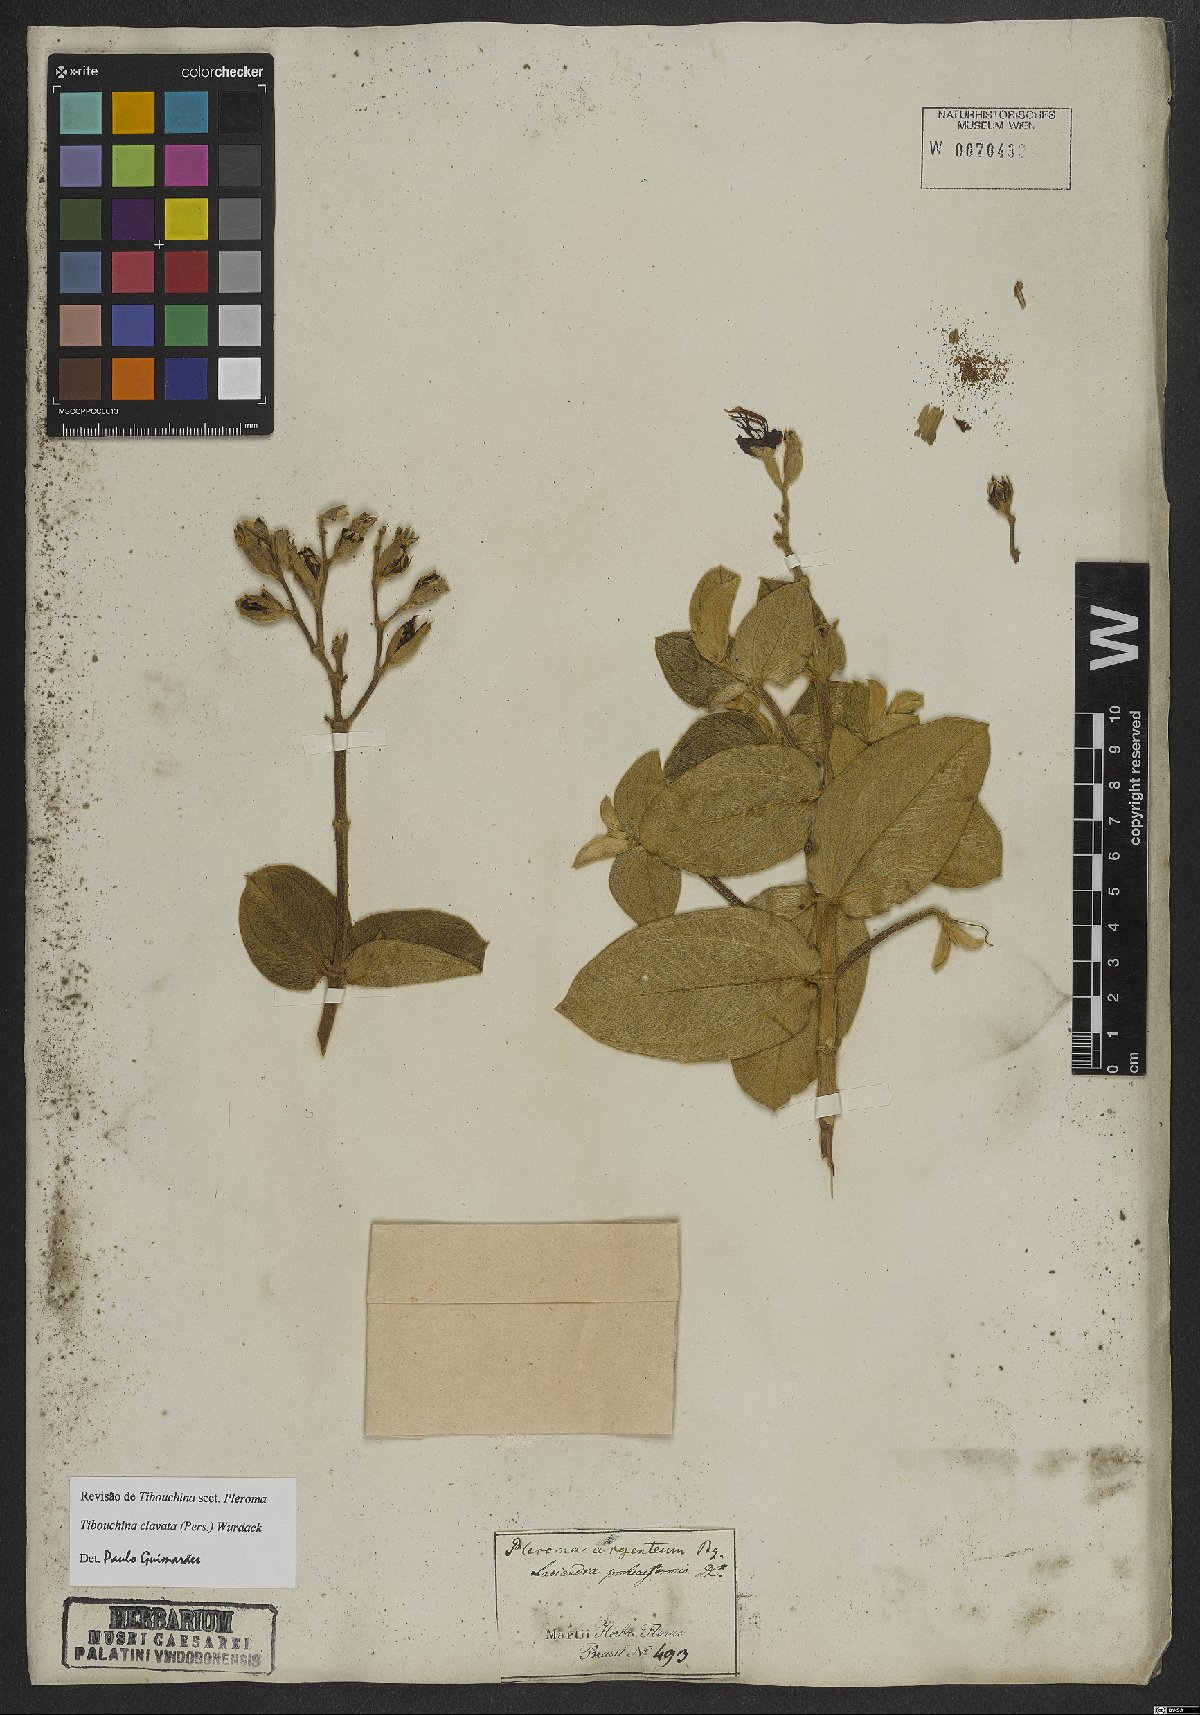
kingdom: Plantae
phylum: Tracheophyta
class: Magnoliopsida
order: Myrtales
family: Melastomataceae
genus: Pleroma
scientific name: Pleroma clavatum
